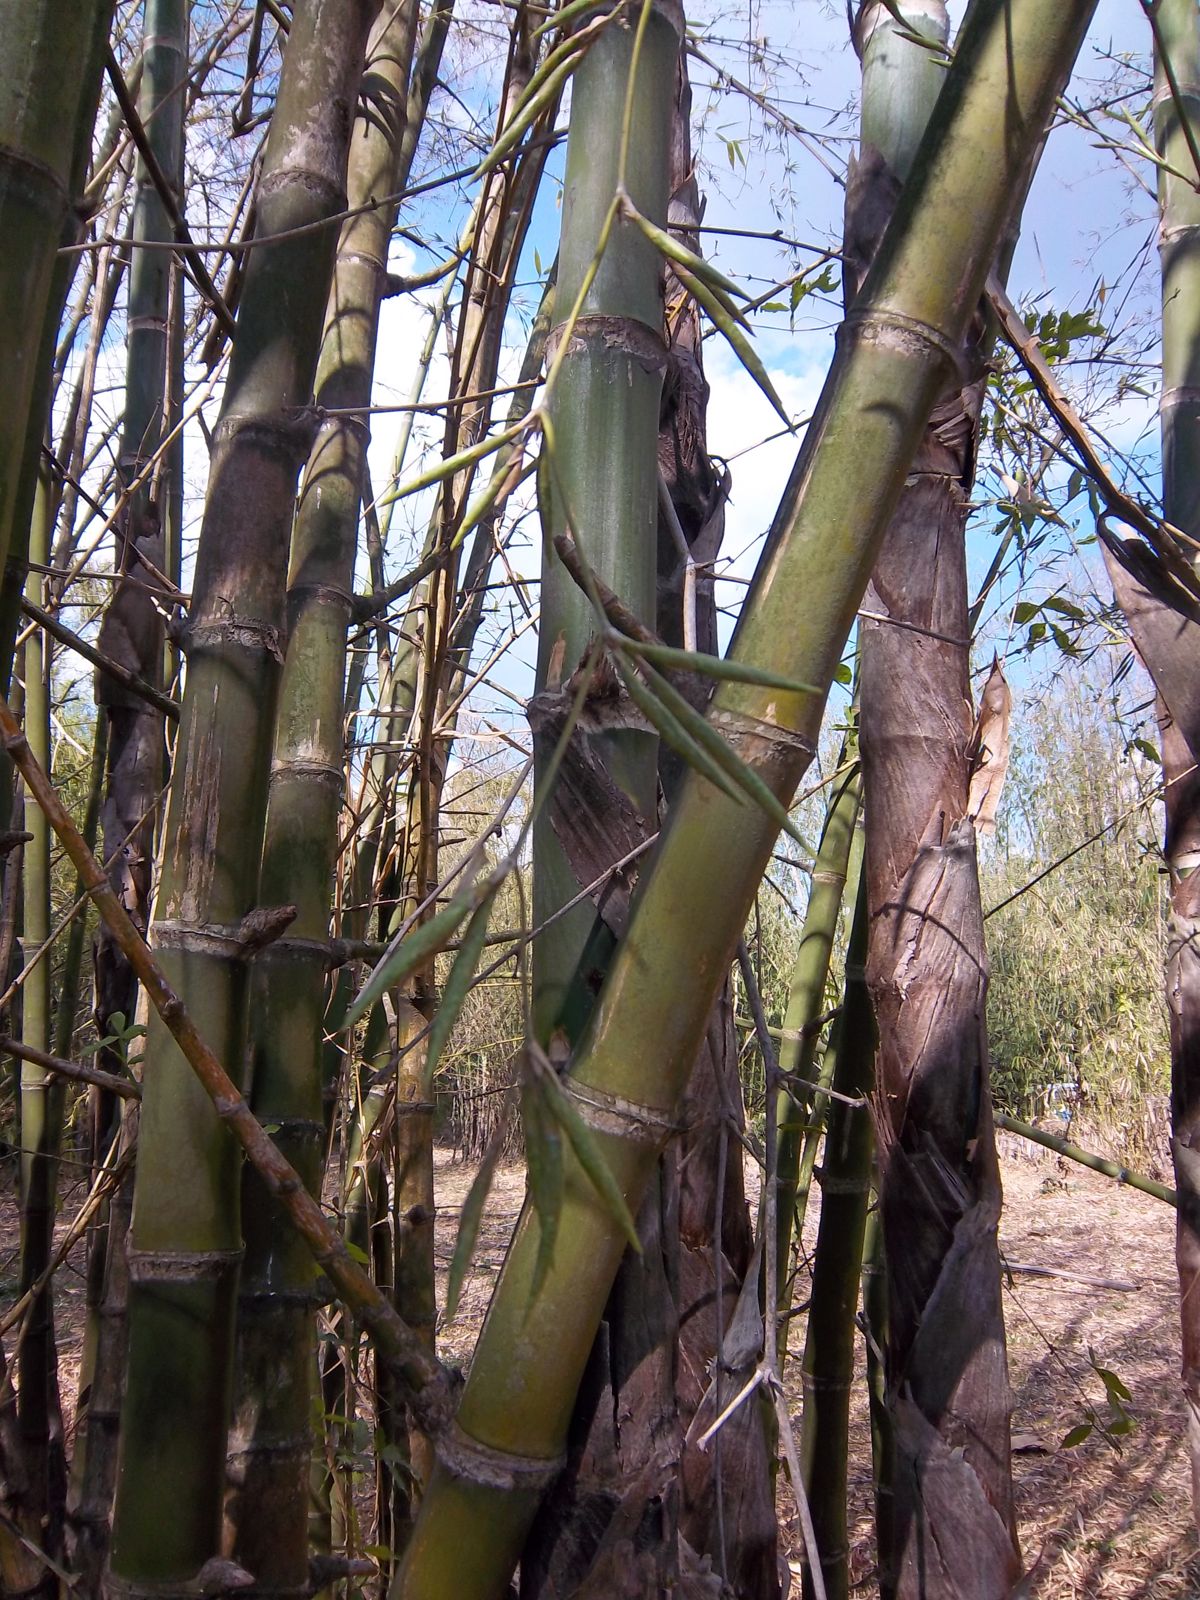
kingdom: Plantae
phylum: Tracheophyta
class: Liliopsida
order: Poales
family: Poaceae
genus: Guadua
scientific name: Guadua amplexifolia
